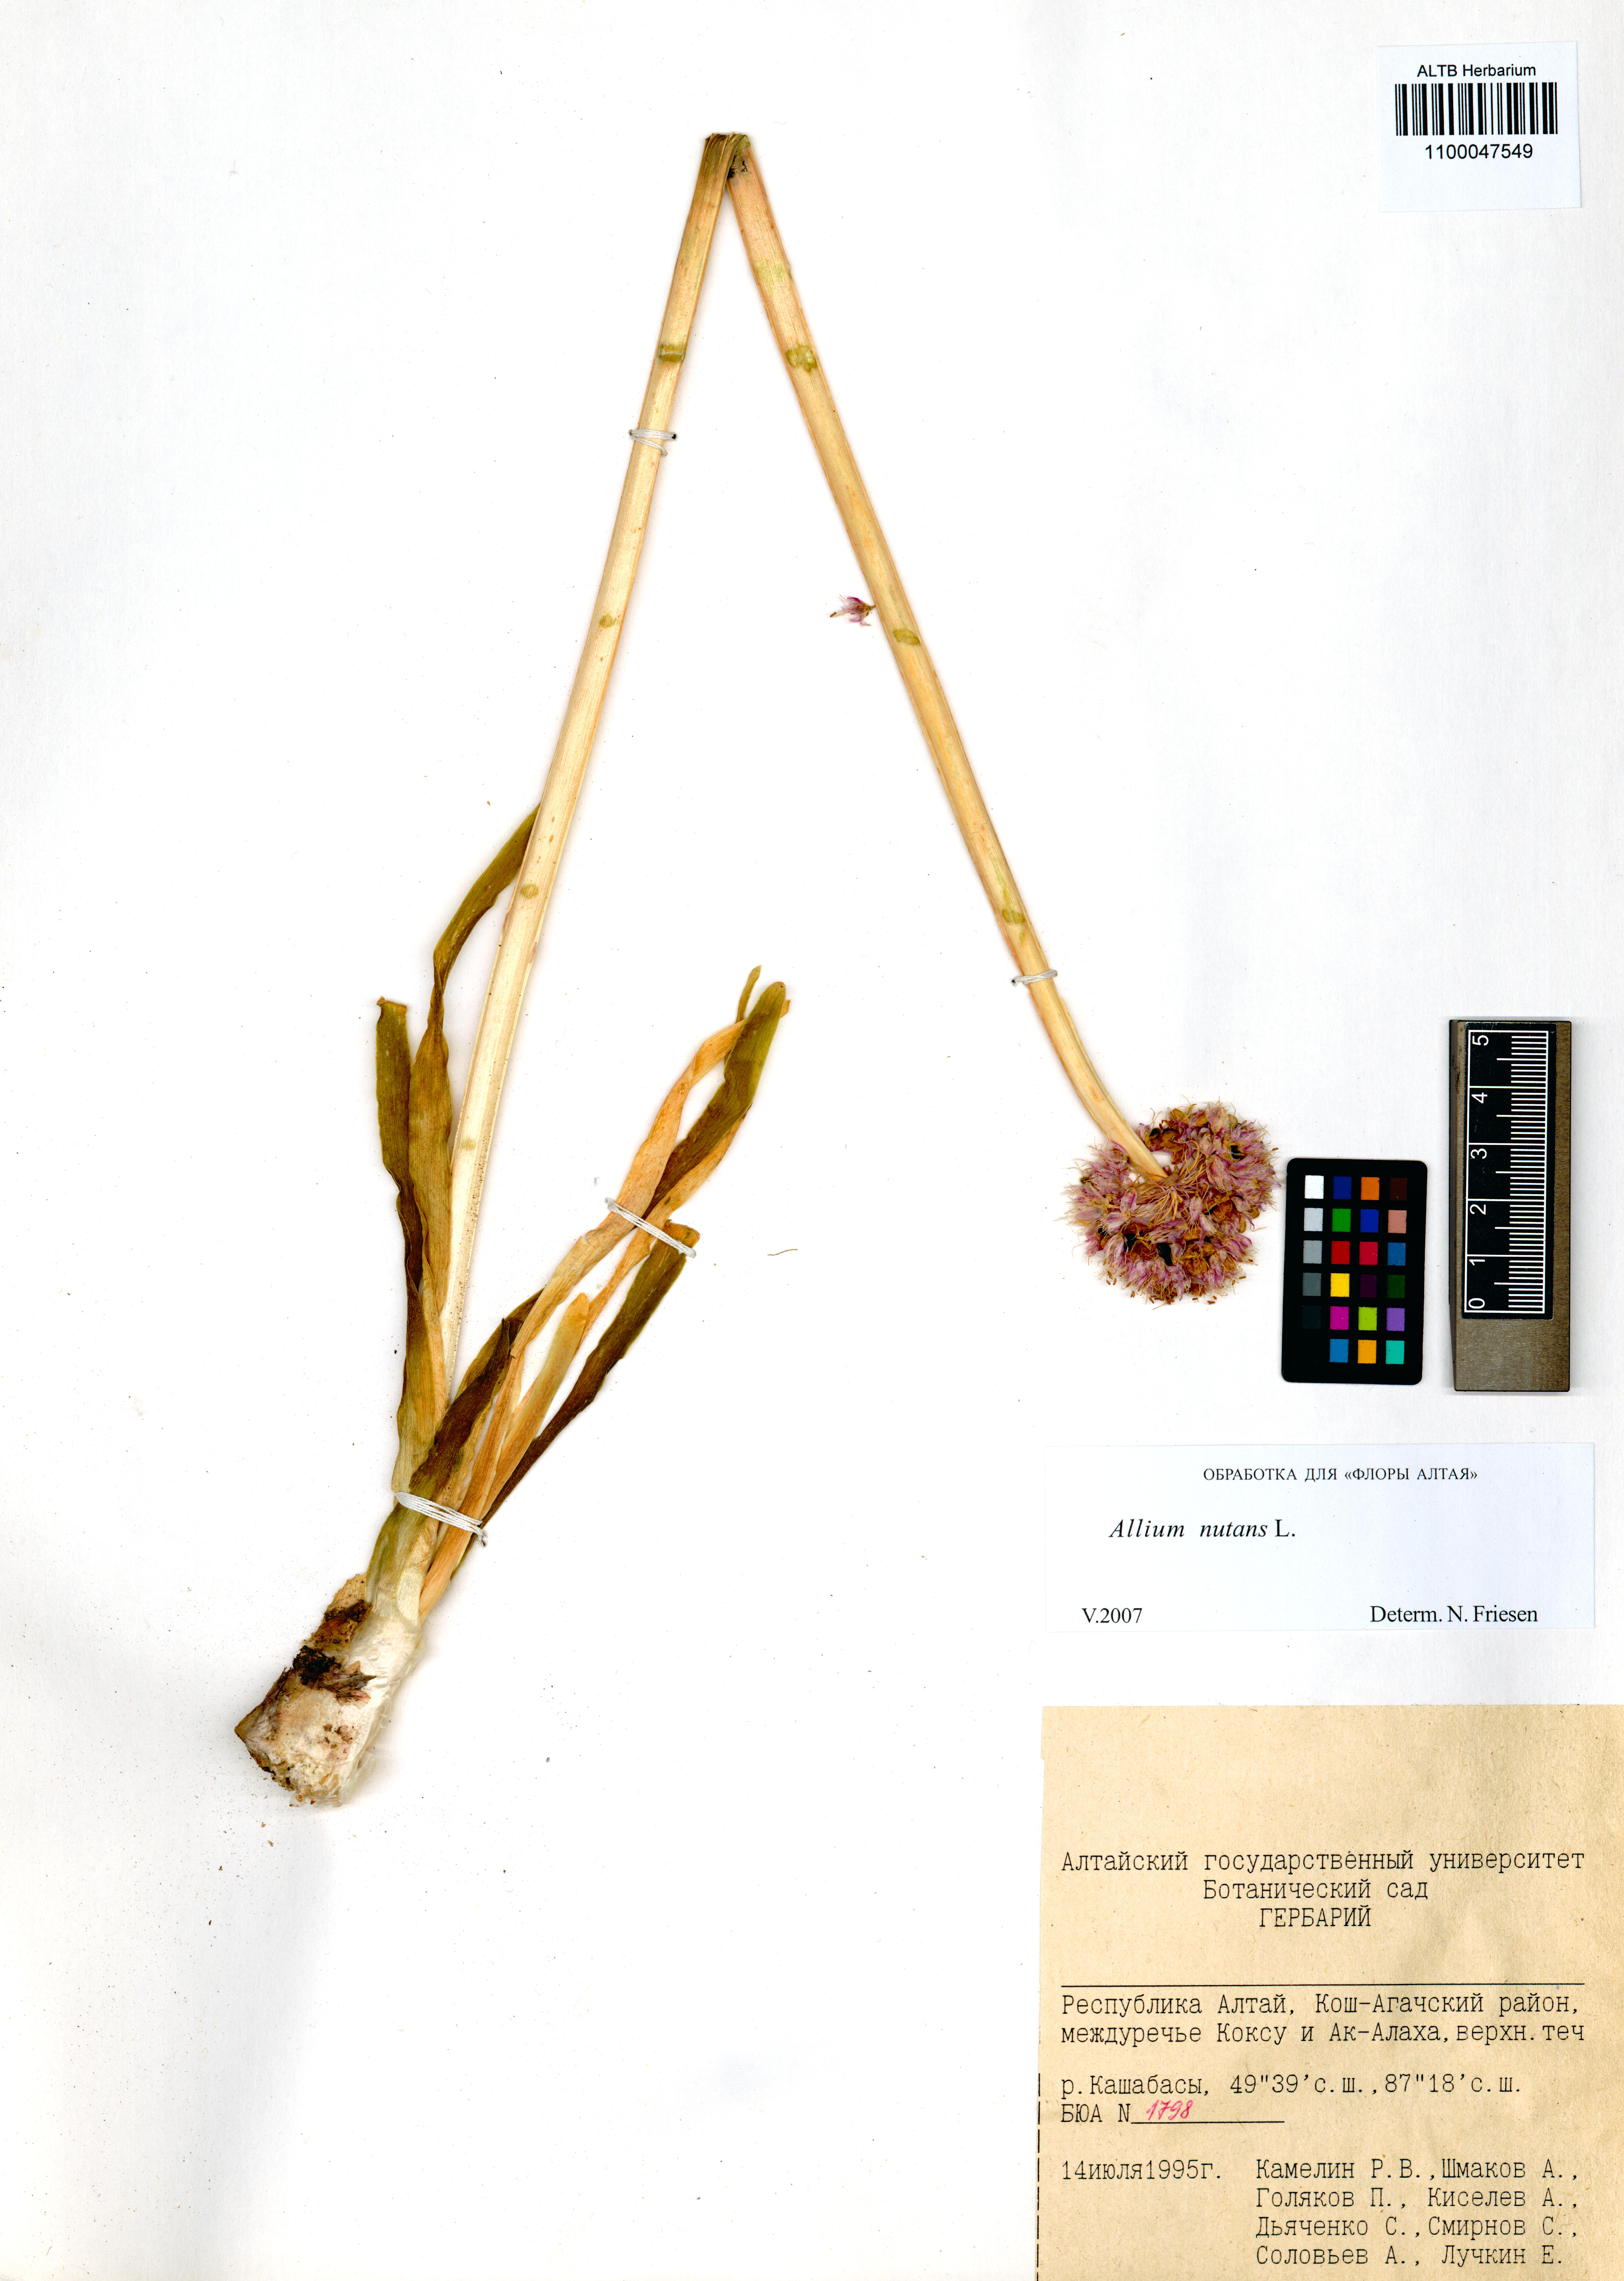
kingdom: Plantae
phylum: Tracheophyta
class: Liliopsida
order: Asparagales
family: Amaryllidaceae
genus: Allium
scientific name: Allium nutans
